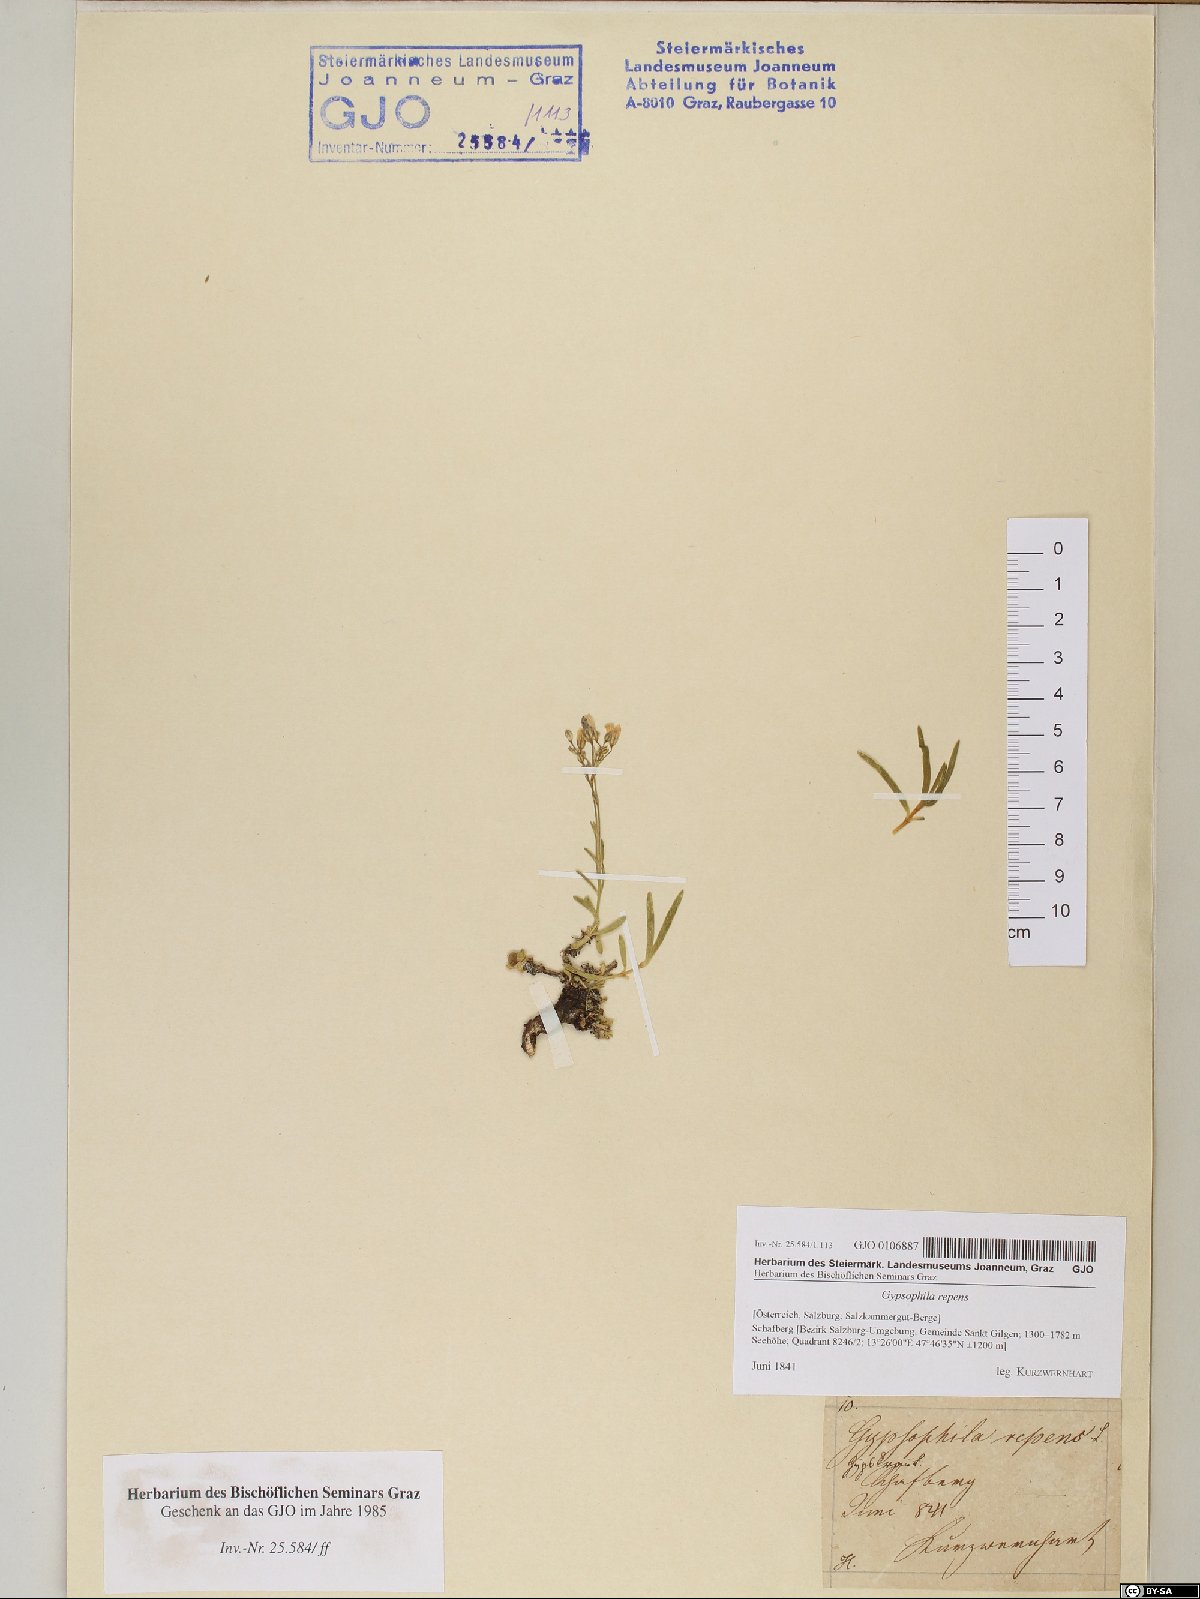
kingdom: Plantae
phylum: Tracheophyta
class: Magnoliopsida
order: Caryophyllales
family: Caryophyllaceae
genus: Gypsophila
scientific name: Gypsophila repens
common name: Creeping baby's-breath
